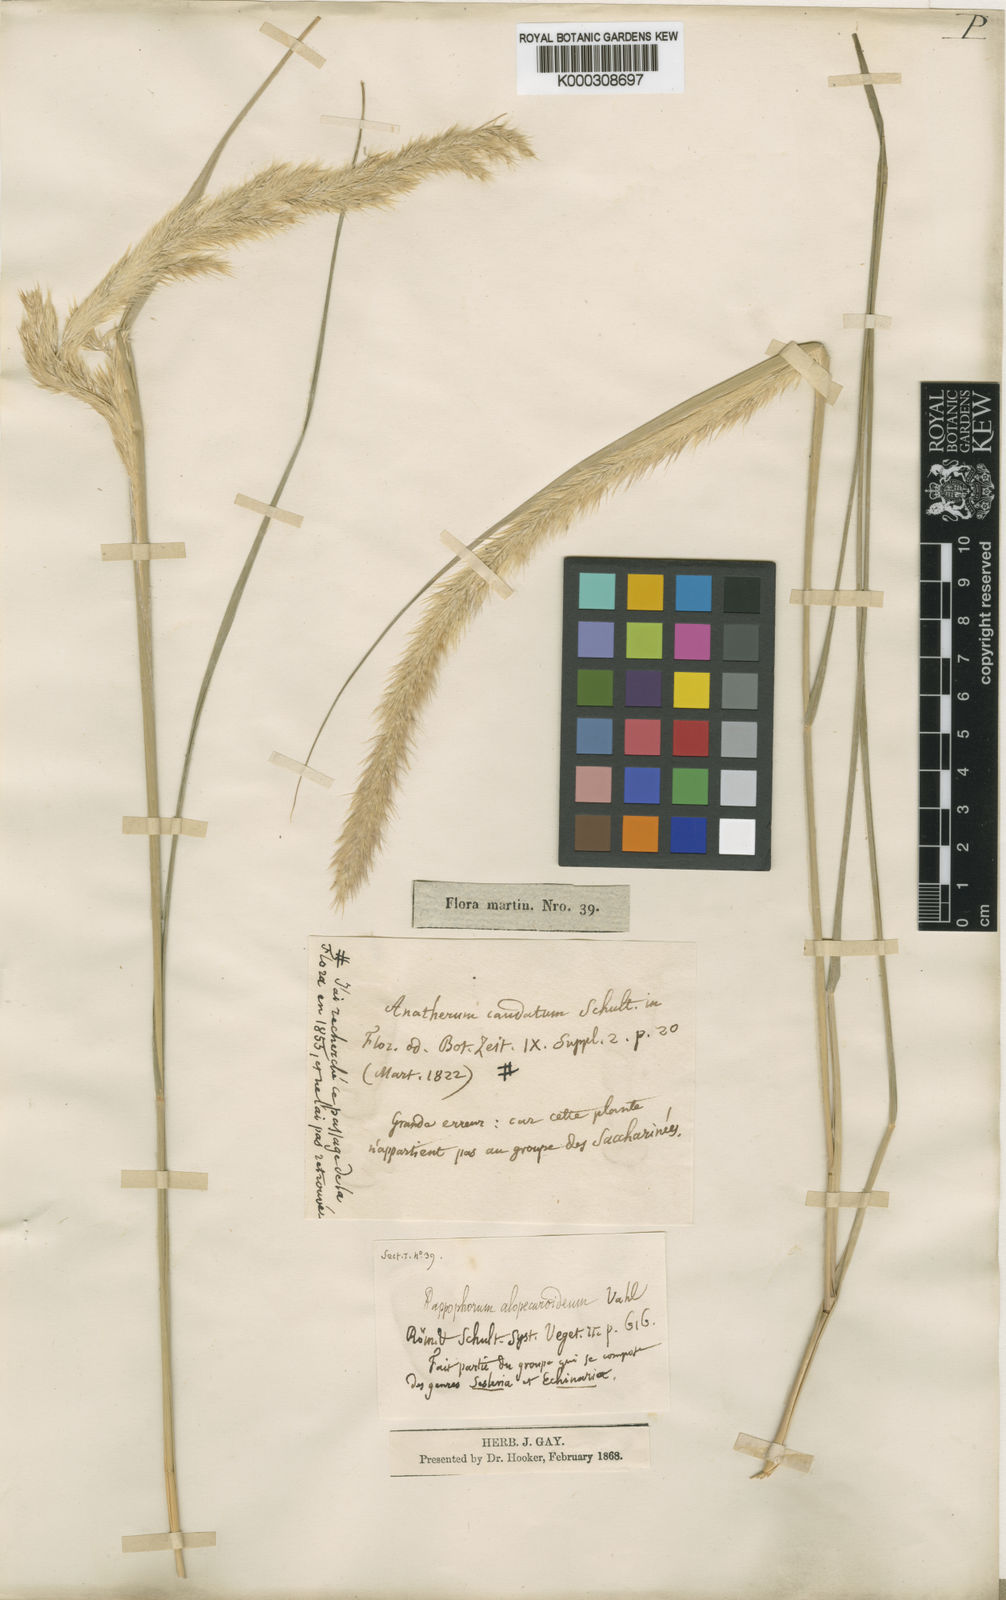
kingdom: Plantae
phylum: Tracheophyta
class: Liliopsida
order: Poales
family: Poaceae
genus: Pappophorum
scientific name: Pappophorum pappiferum
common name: Crabgrass
